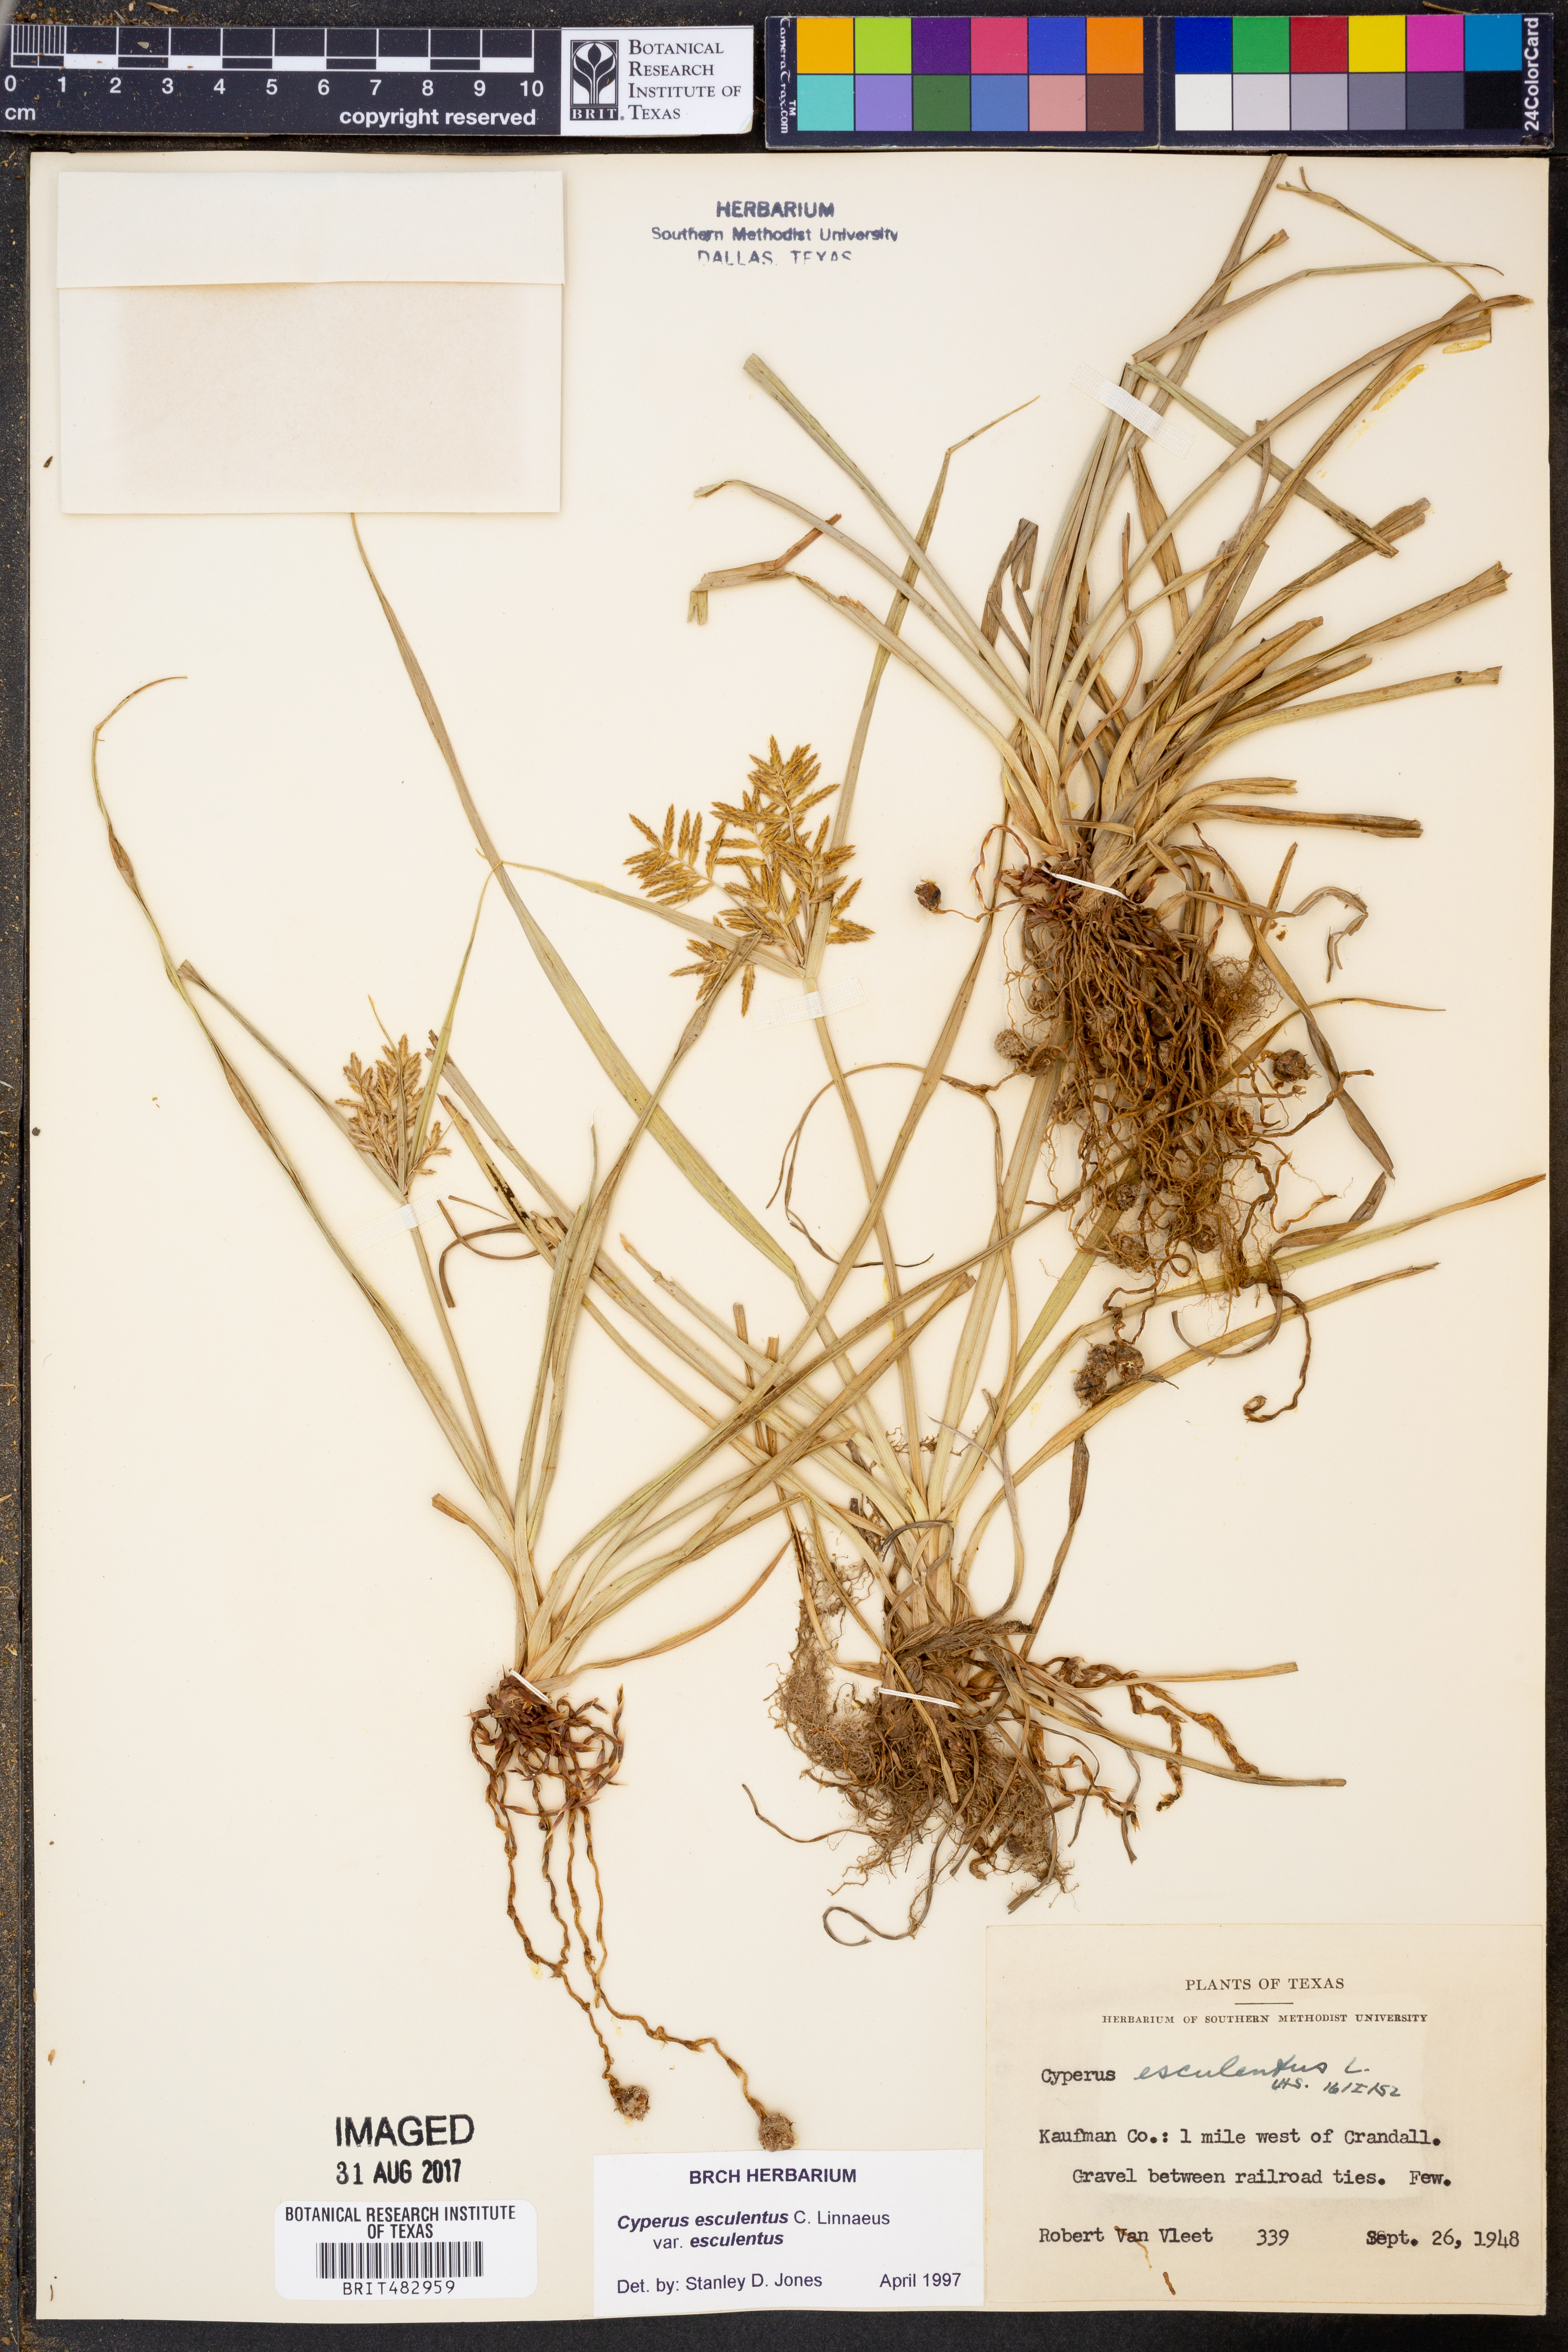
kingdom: Plantae
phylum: Tracheophyta
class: Liliopsida
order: Poales
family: Cyperaceae
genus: Cyperus
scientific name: Cyperus esculentus
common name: Yellow nutsedge
